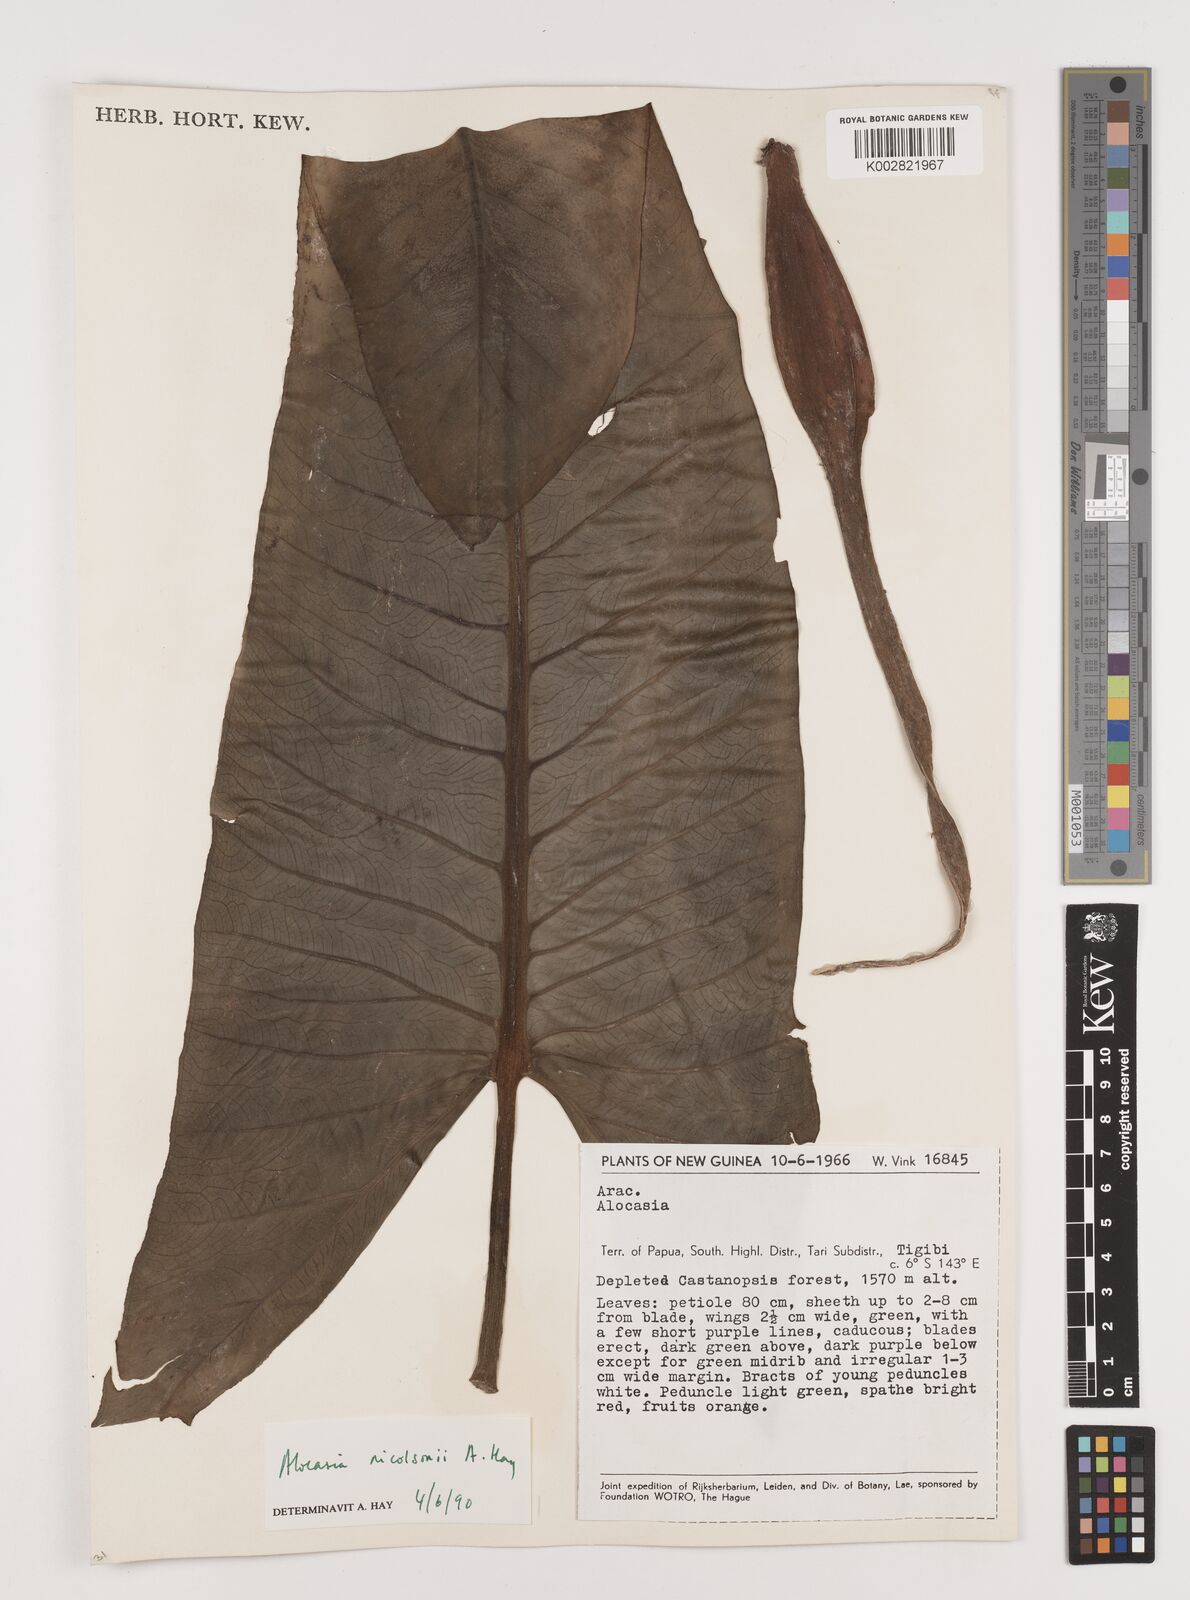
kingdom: Plantae
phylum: Tracheophyta
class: Liliopsida
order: Alismatales
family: Araceae
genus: Alocasia
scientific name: Alocasia nicolsonii
